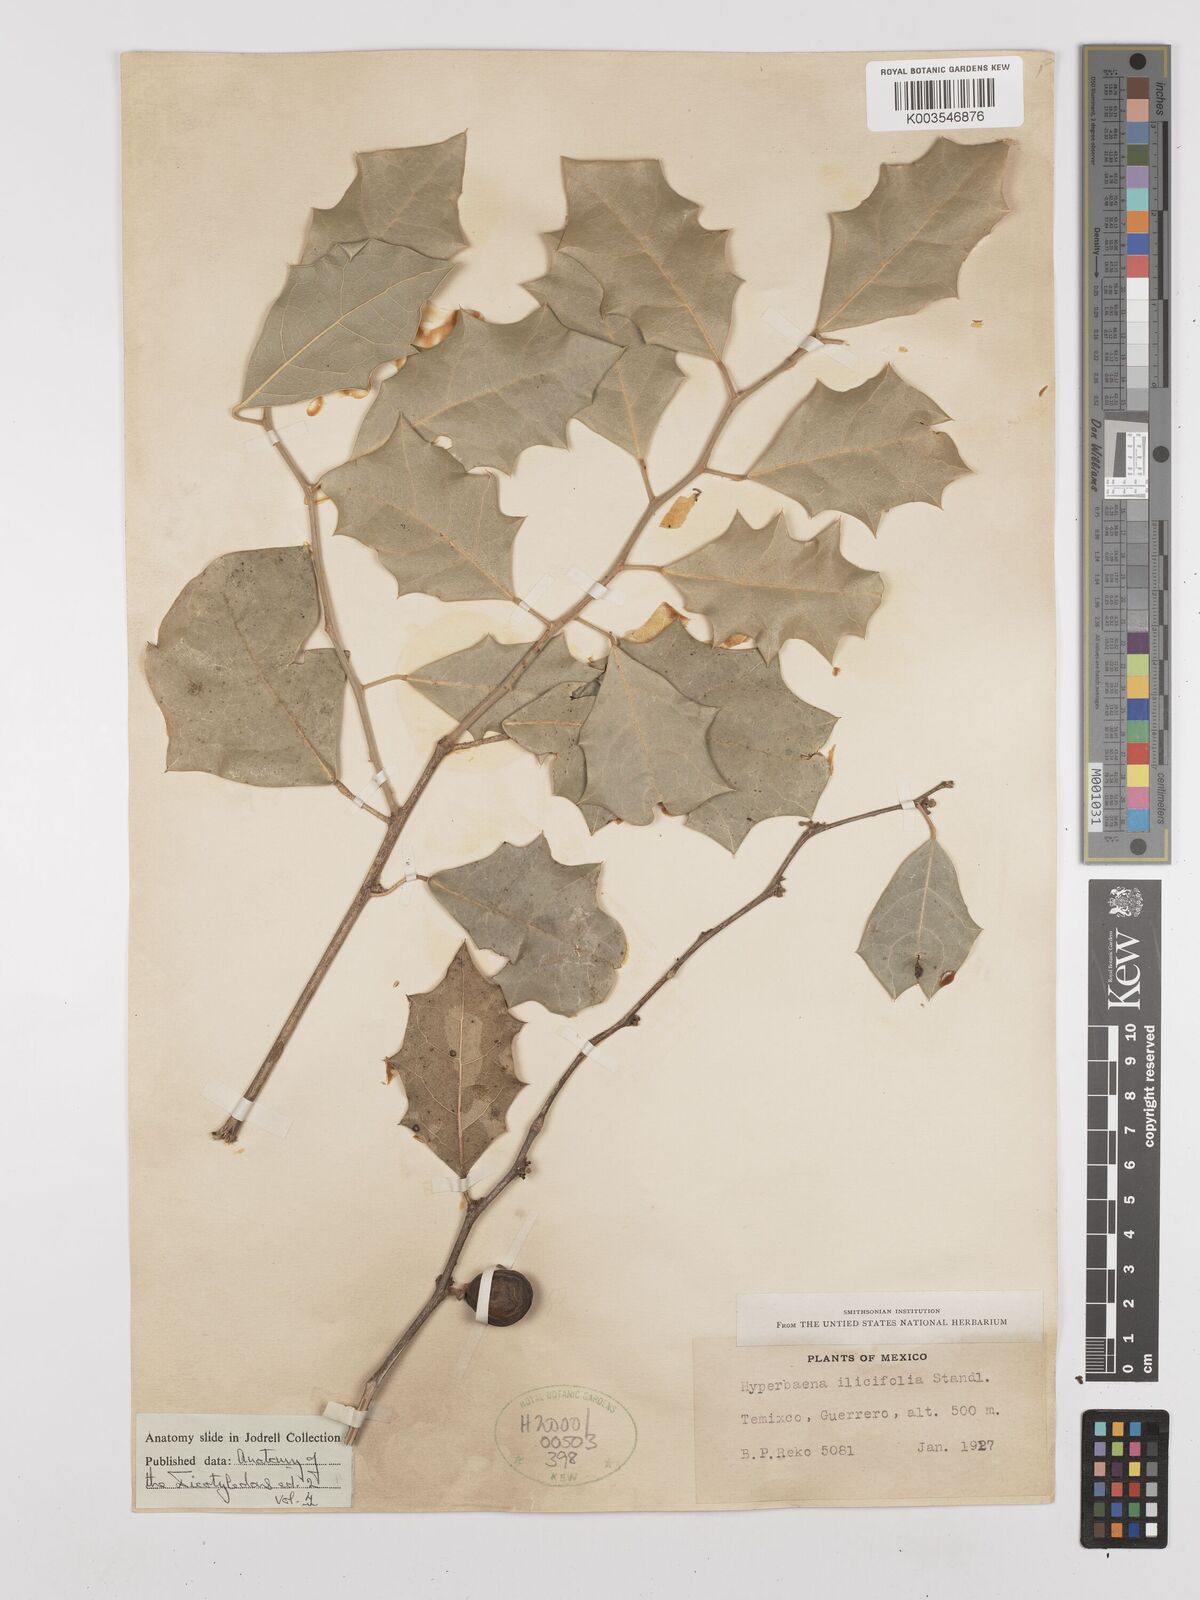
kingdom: Plantae
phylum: Tracheophyta
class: Magnoliopsida
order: Ranunculales
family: Menispermaceae
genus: Hyperbaena
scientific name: Hyperbaena ilicifolia
